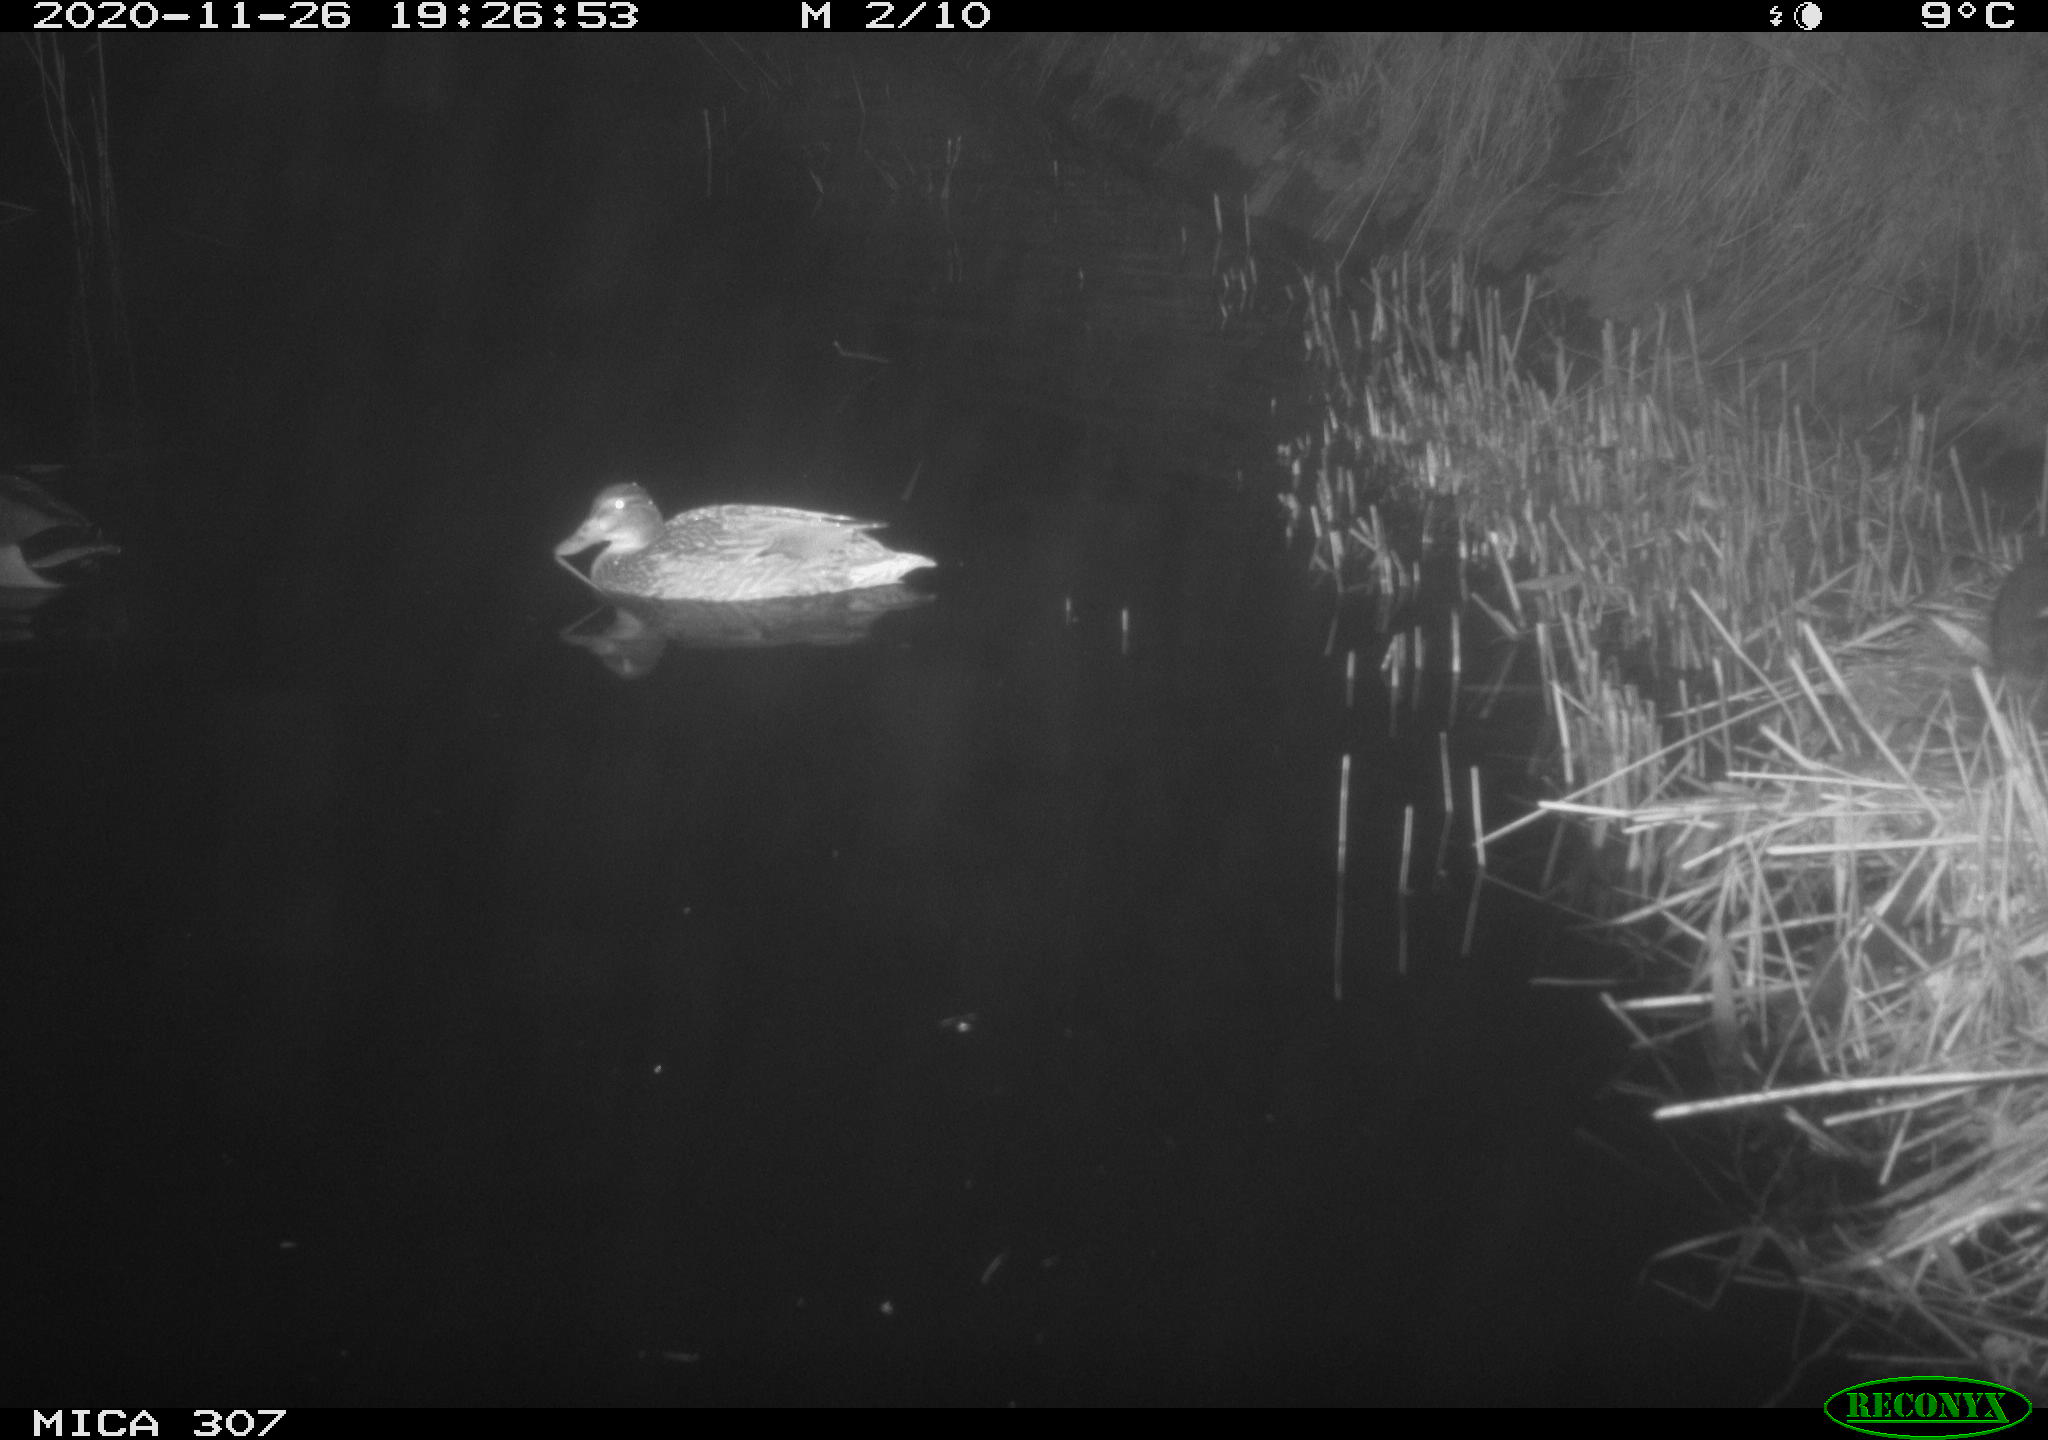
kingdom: Animalia
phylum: Chordata
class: Aves
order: Anseriformes
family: Anatidae
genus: Anas
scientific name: Anas platyrhynchos
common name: Mallard
